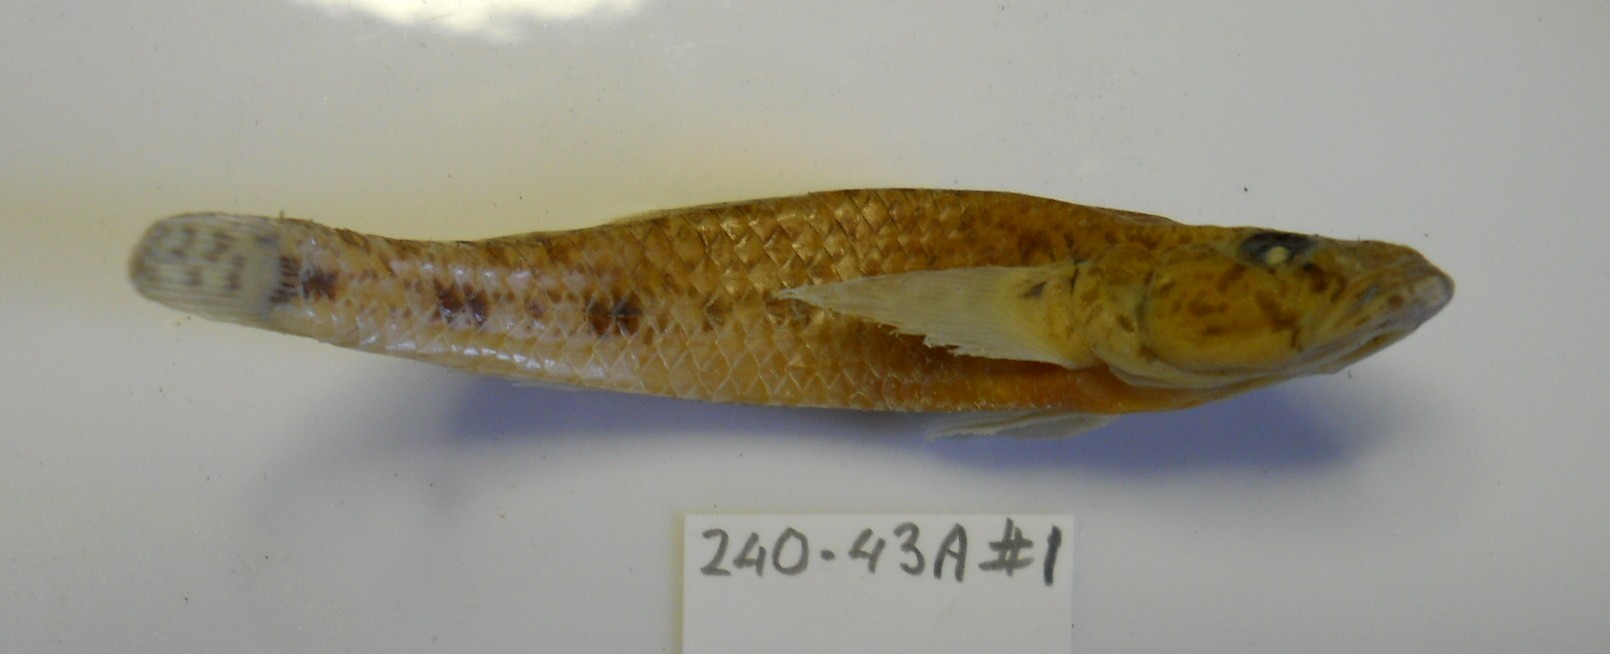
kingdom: Animalia
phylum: Chordata
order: Perciformes
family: Gobiidae
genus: Glossogobius
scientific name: Glossogobius giuris
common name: Tank goby
